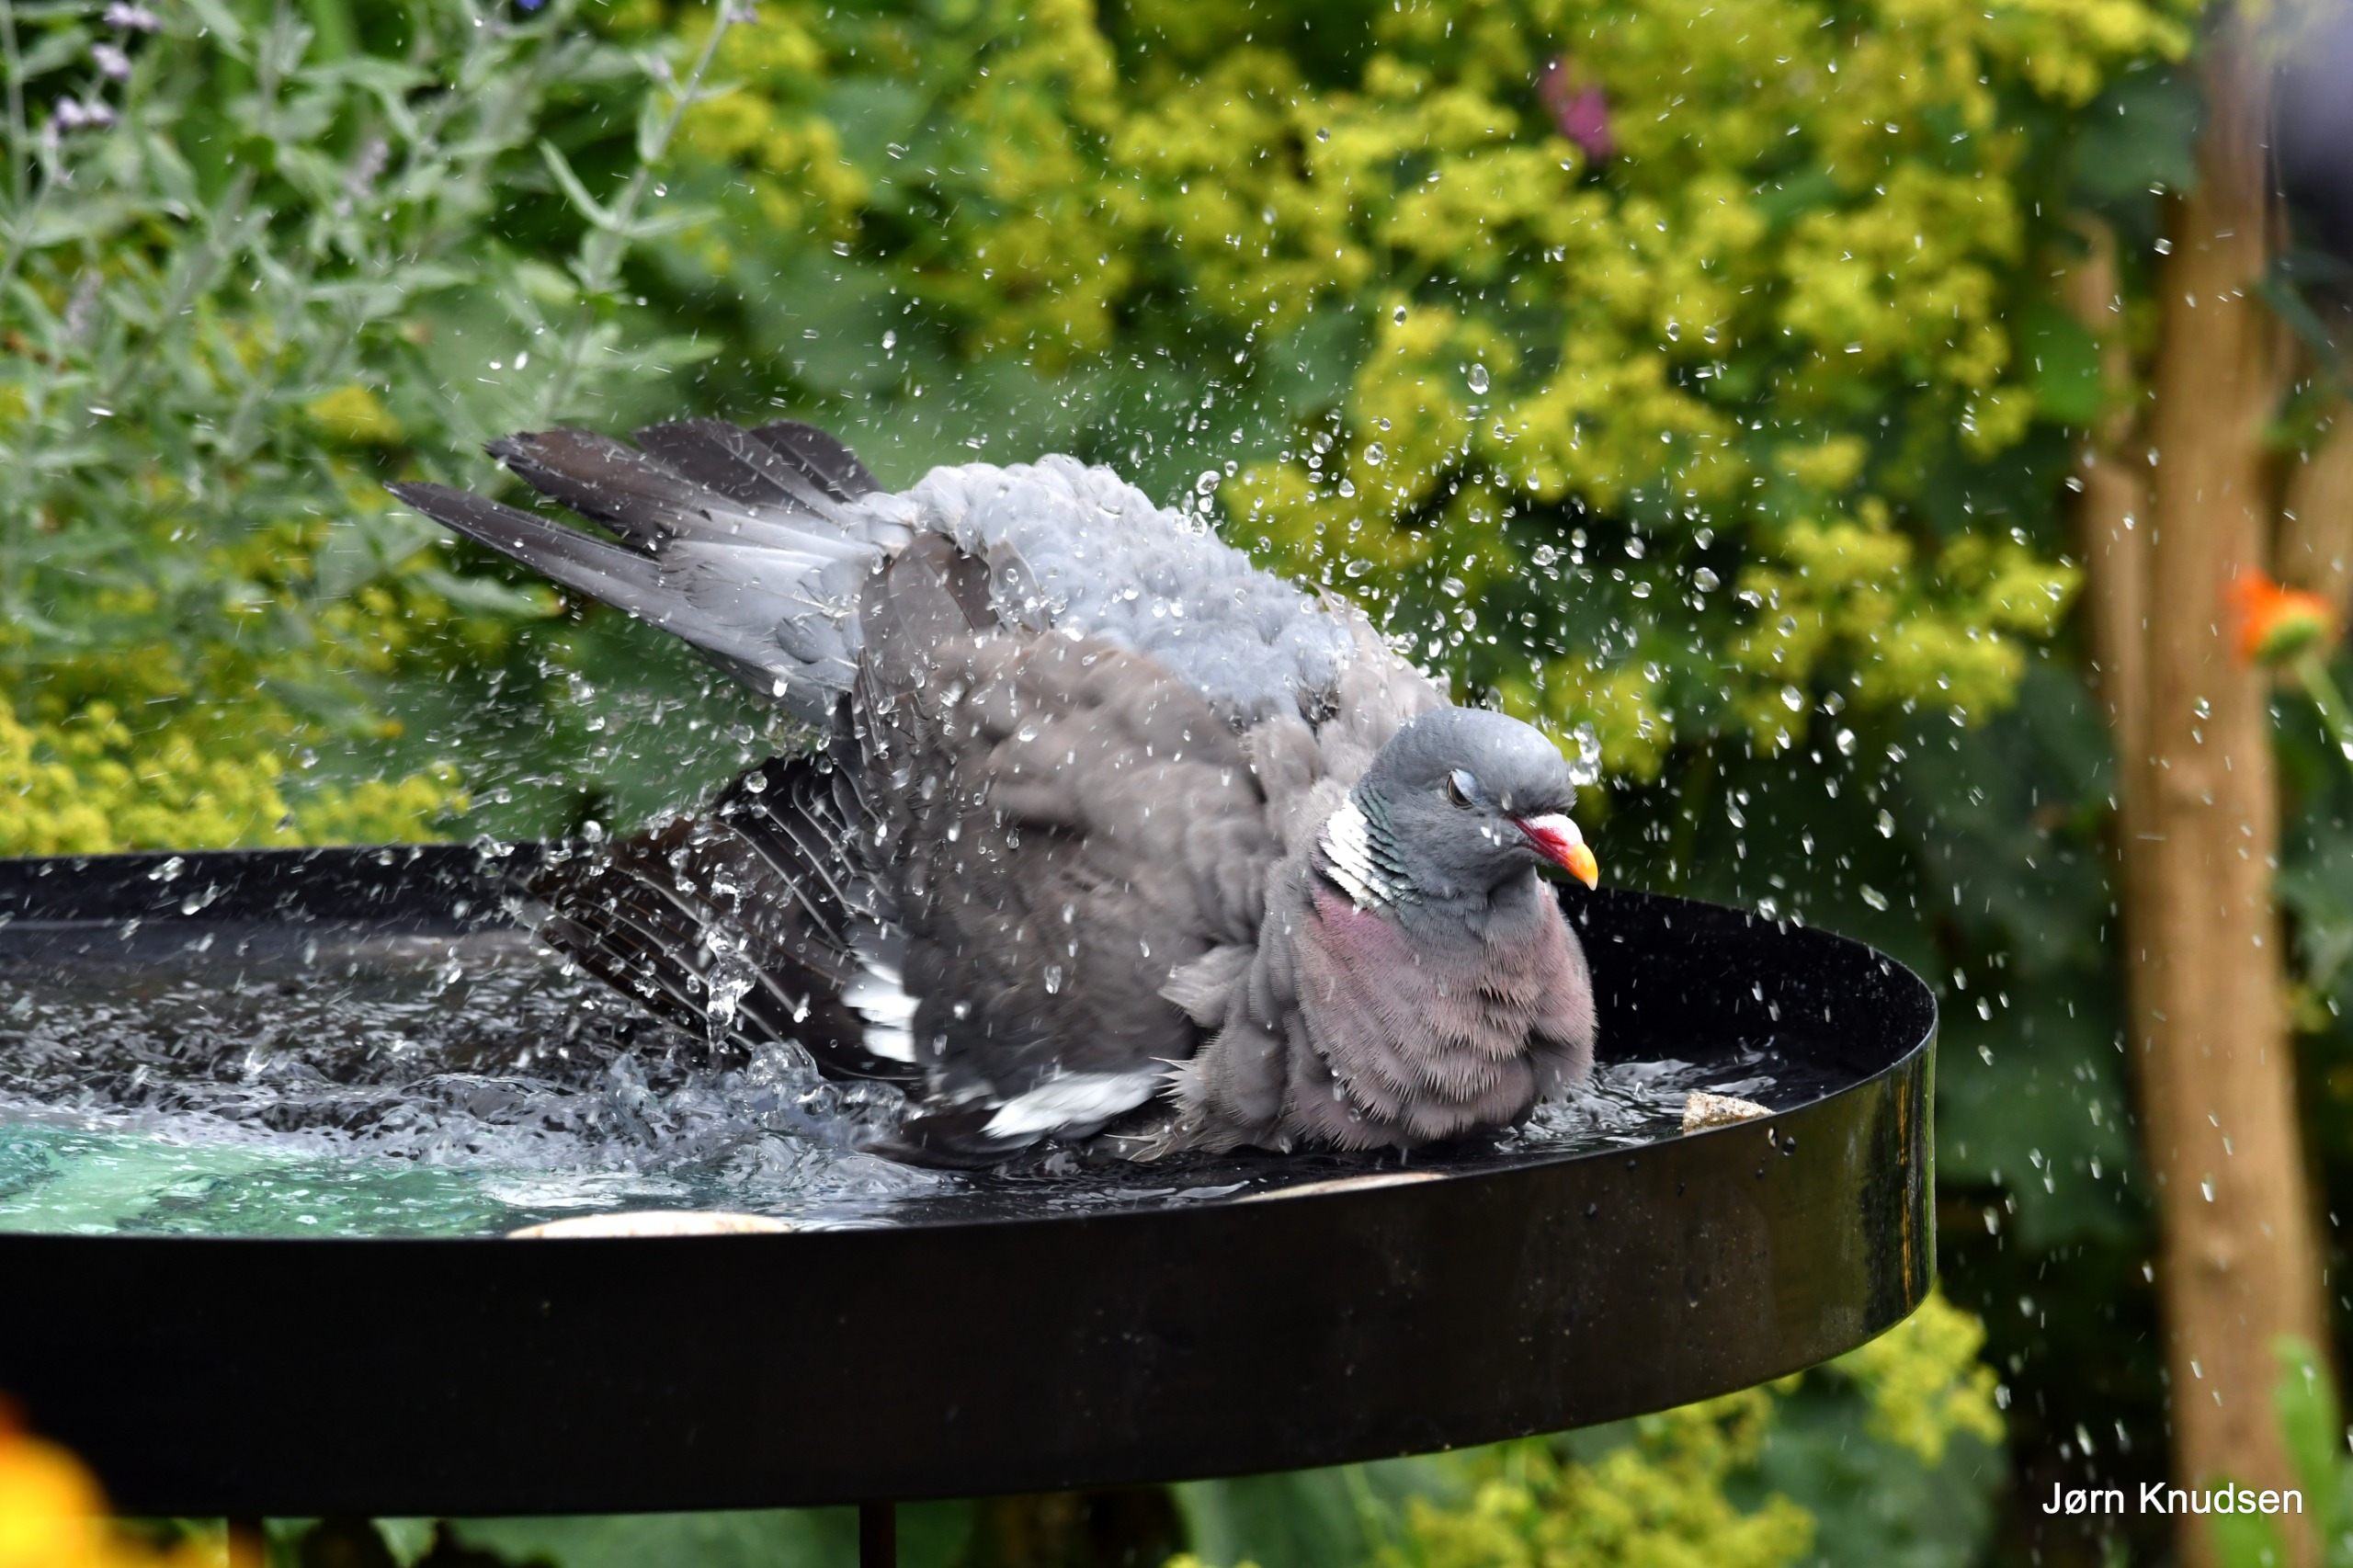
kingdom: Animalia
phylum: Chordata
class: Aves
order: Columbiformes
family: Columbidae
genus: Columba
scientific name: Columba palumbus
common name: Ringdue
